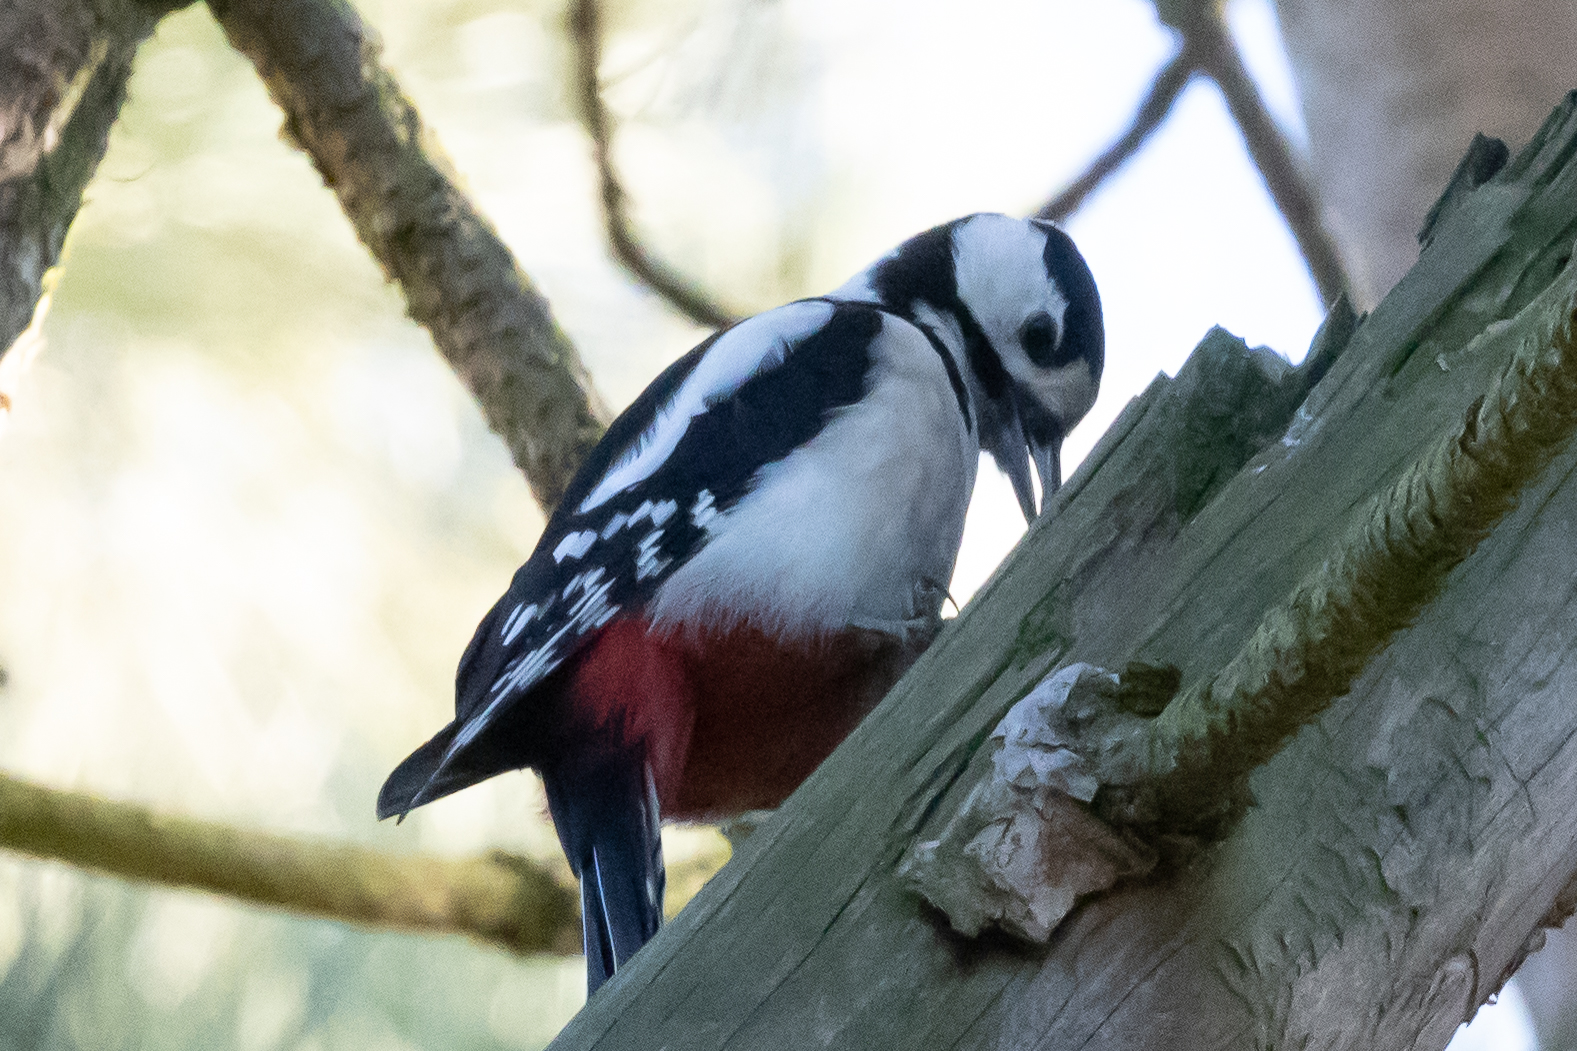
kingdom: Animalia
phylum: Chordata
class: Aves
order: Piciformes
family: Picidae
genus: Dendrocopos
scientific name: Dendrocopos major
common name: Stor flagspætte
